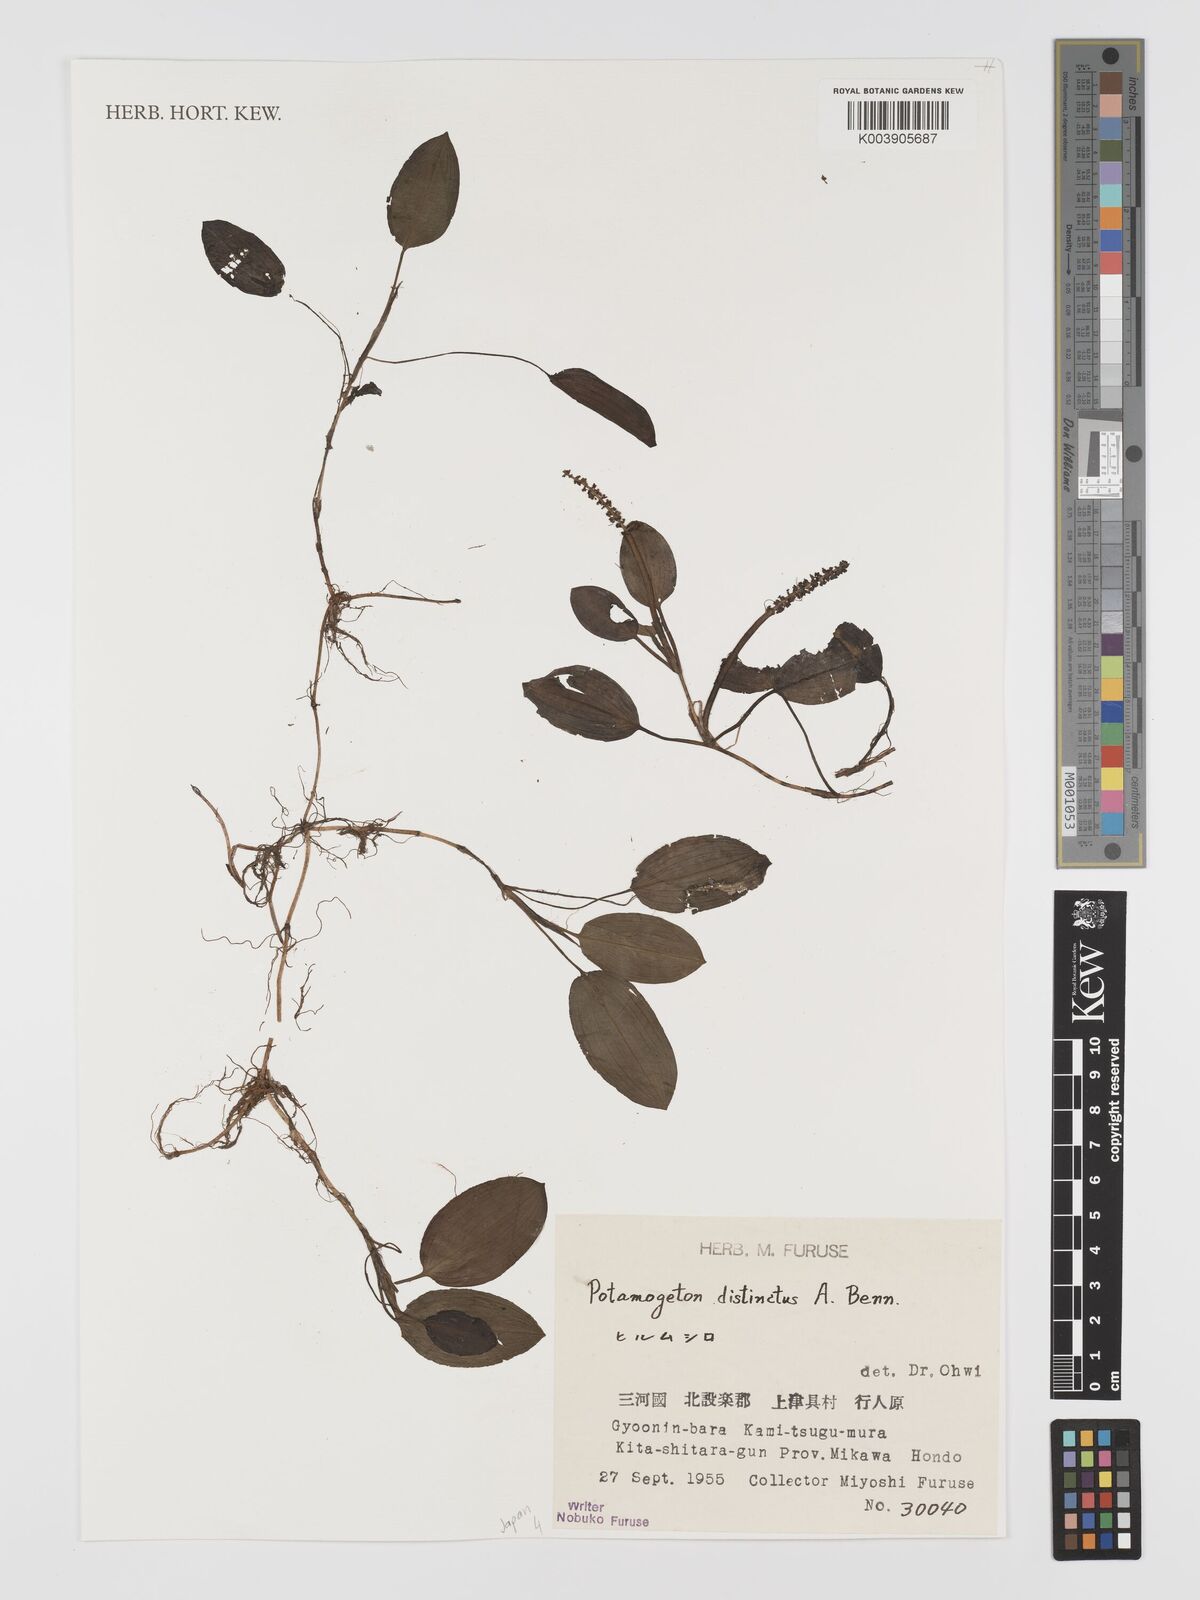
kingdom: Plantae
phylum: Tracheophyta
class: Liliopsida
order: Alismatales
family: Potamogetonaceae
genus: Potamogeton
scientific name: Potamogeton distinctus
